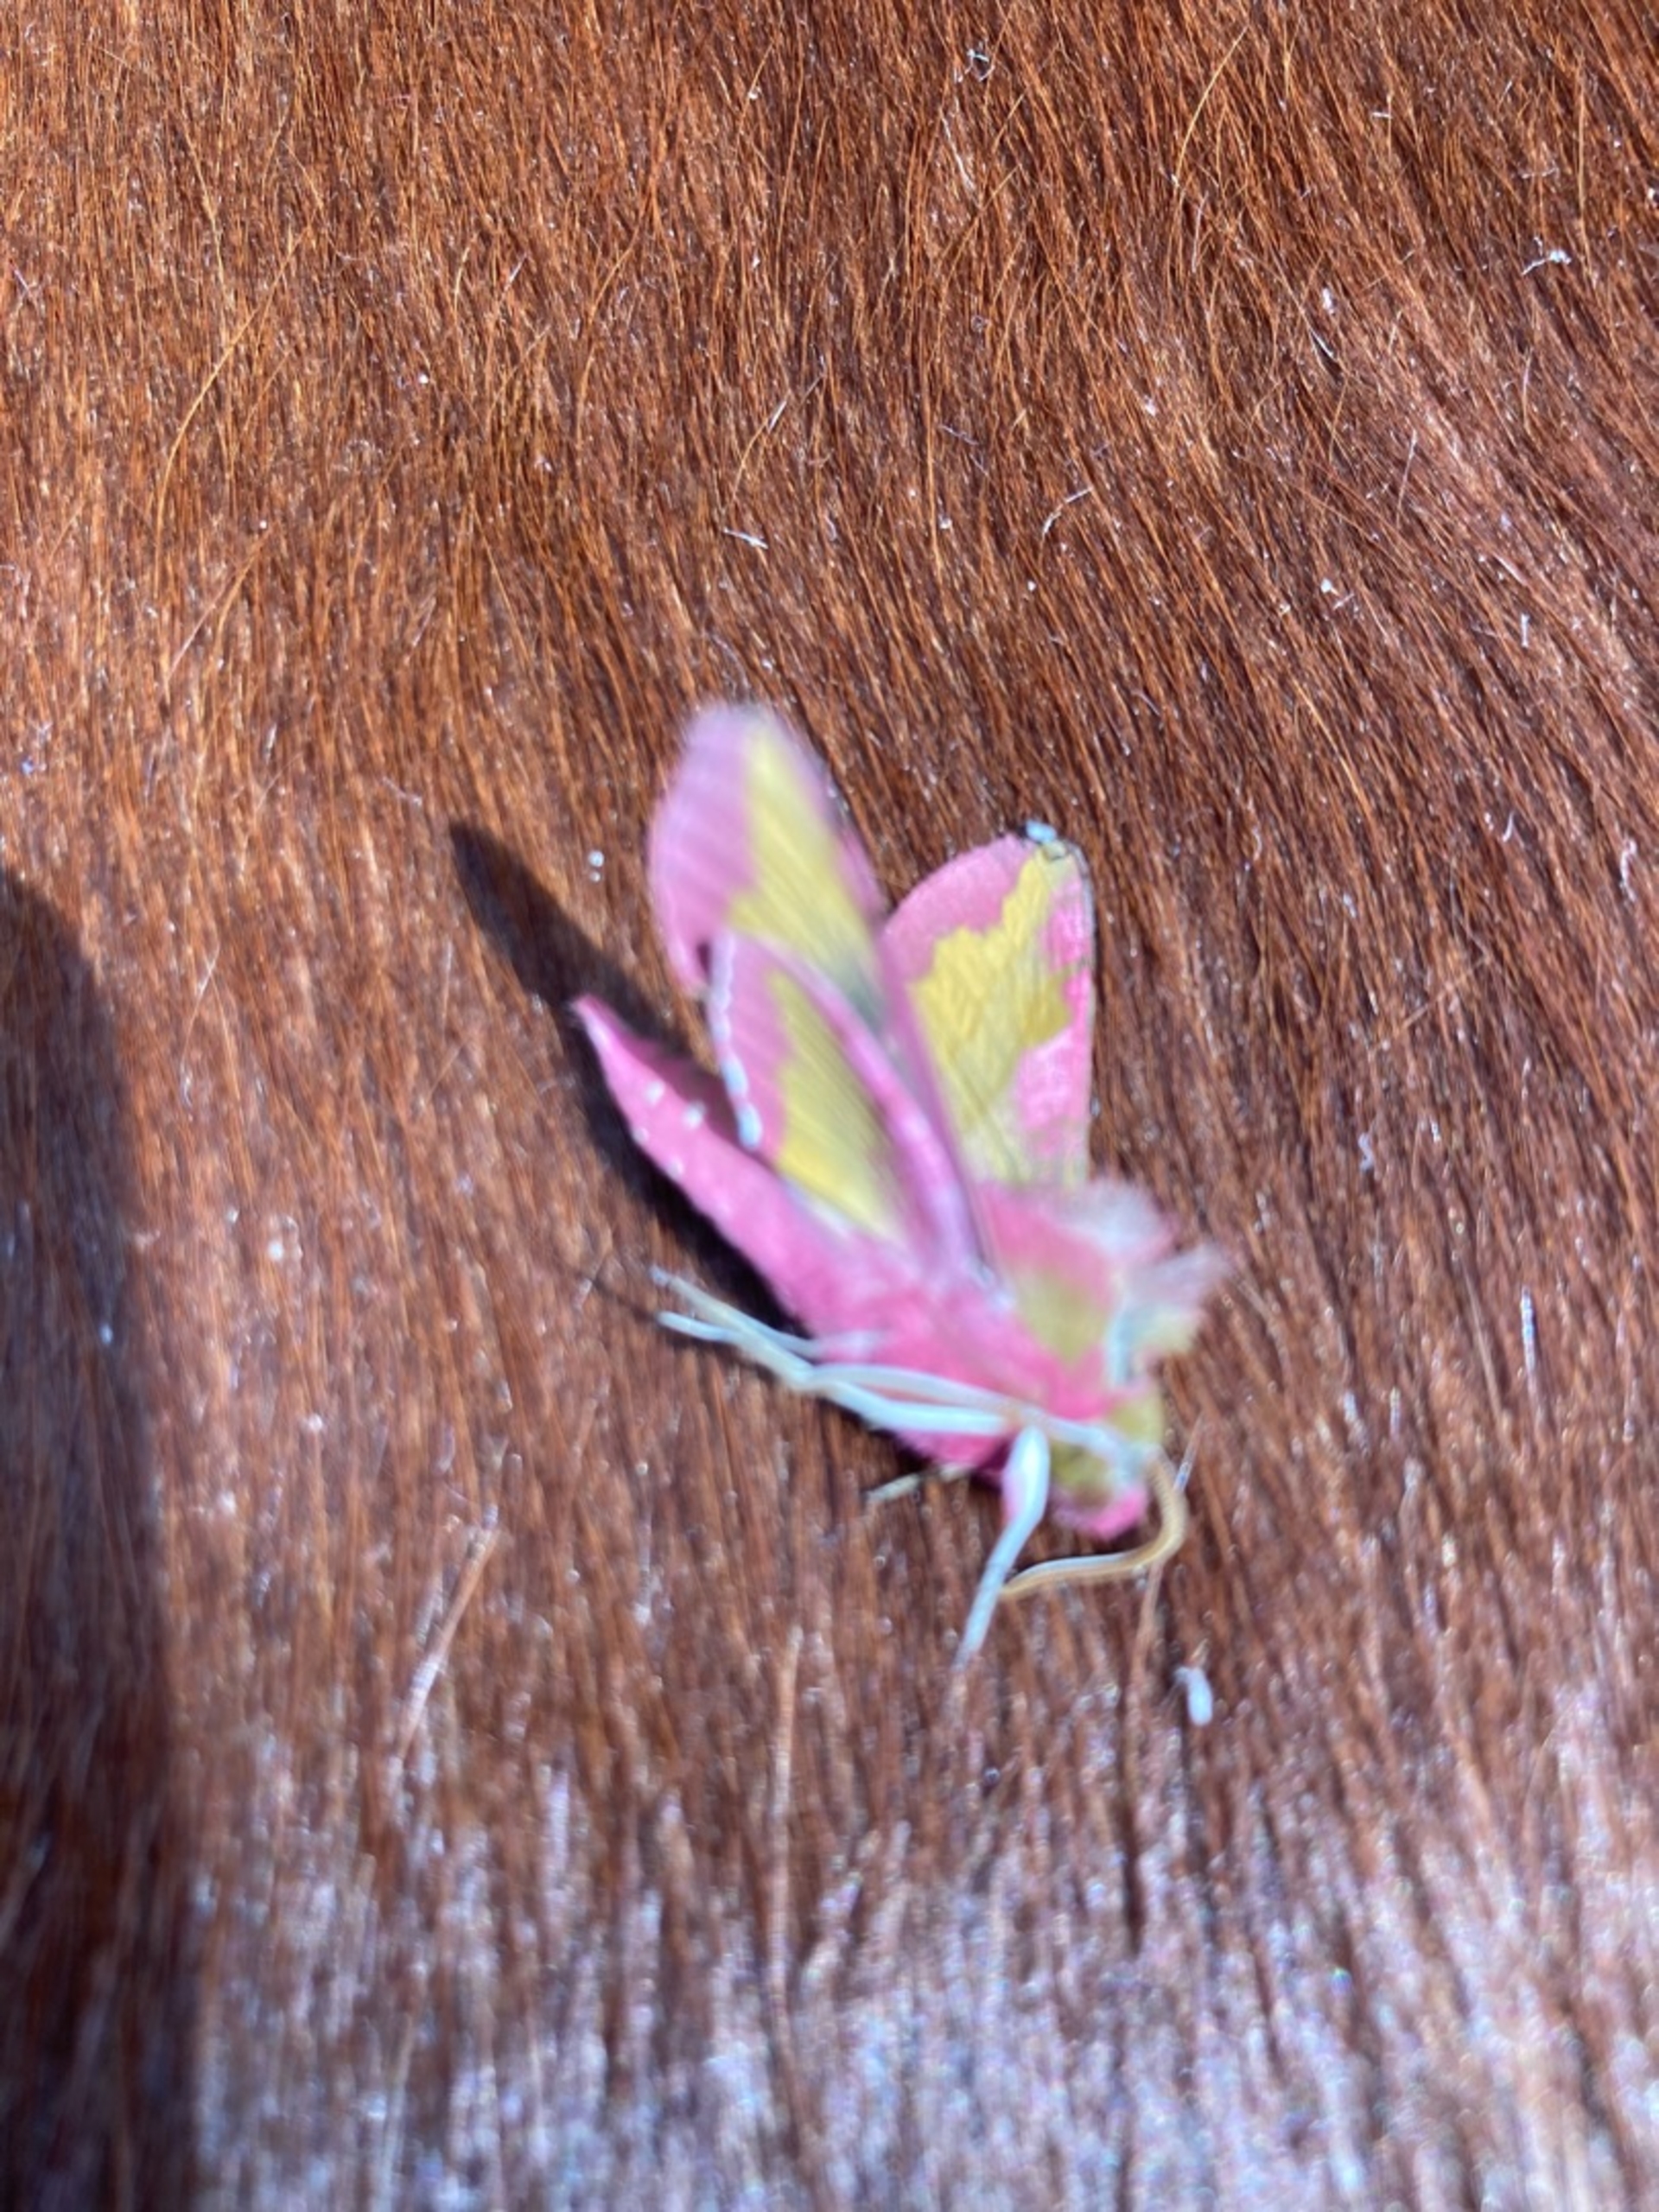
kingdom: Animalia
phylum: Arthropoda
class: Insecta
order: Lepidoptera
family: Sphingidae
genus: Deilephila
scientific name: Deilephila porcellus
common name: Lille vinsværmer
